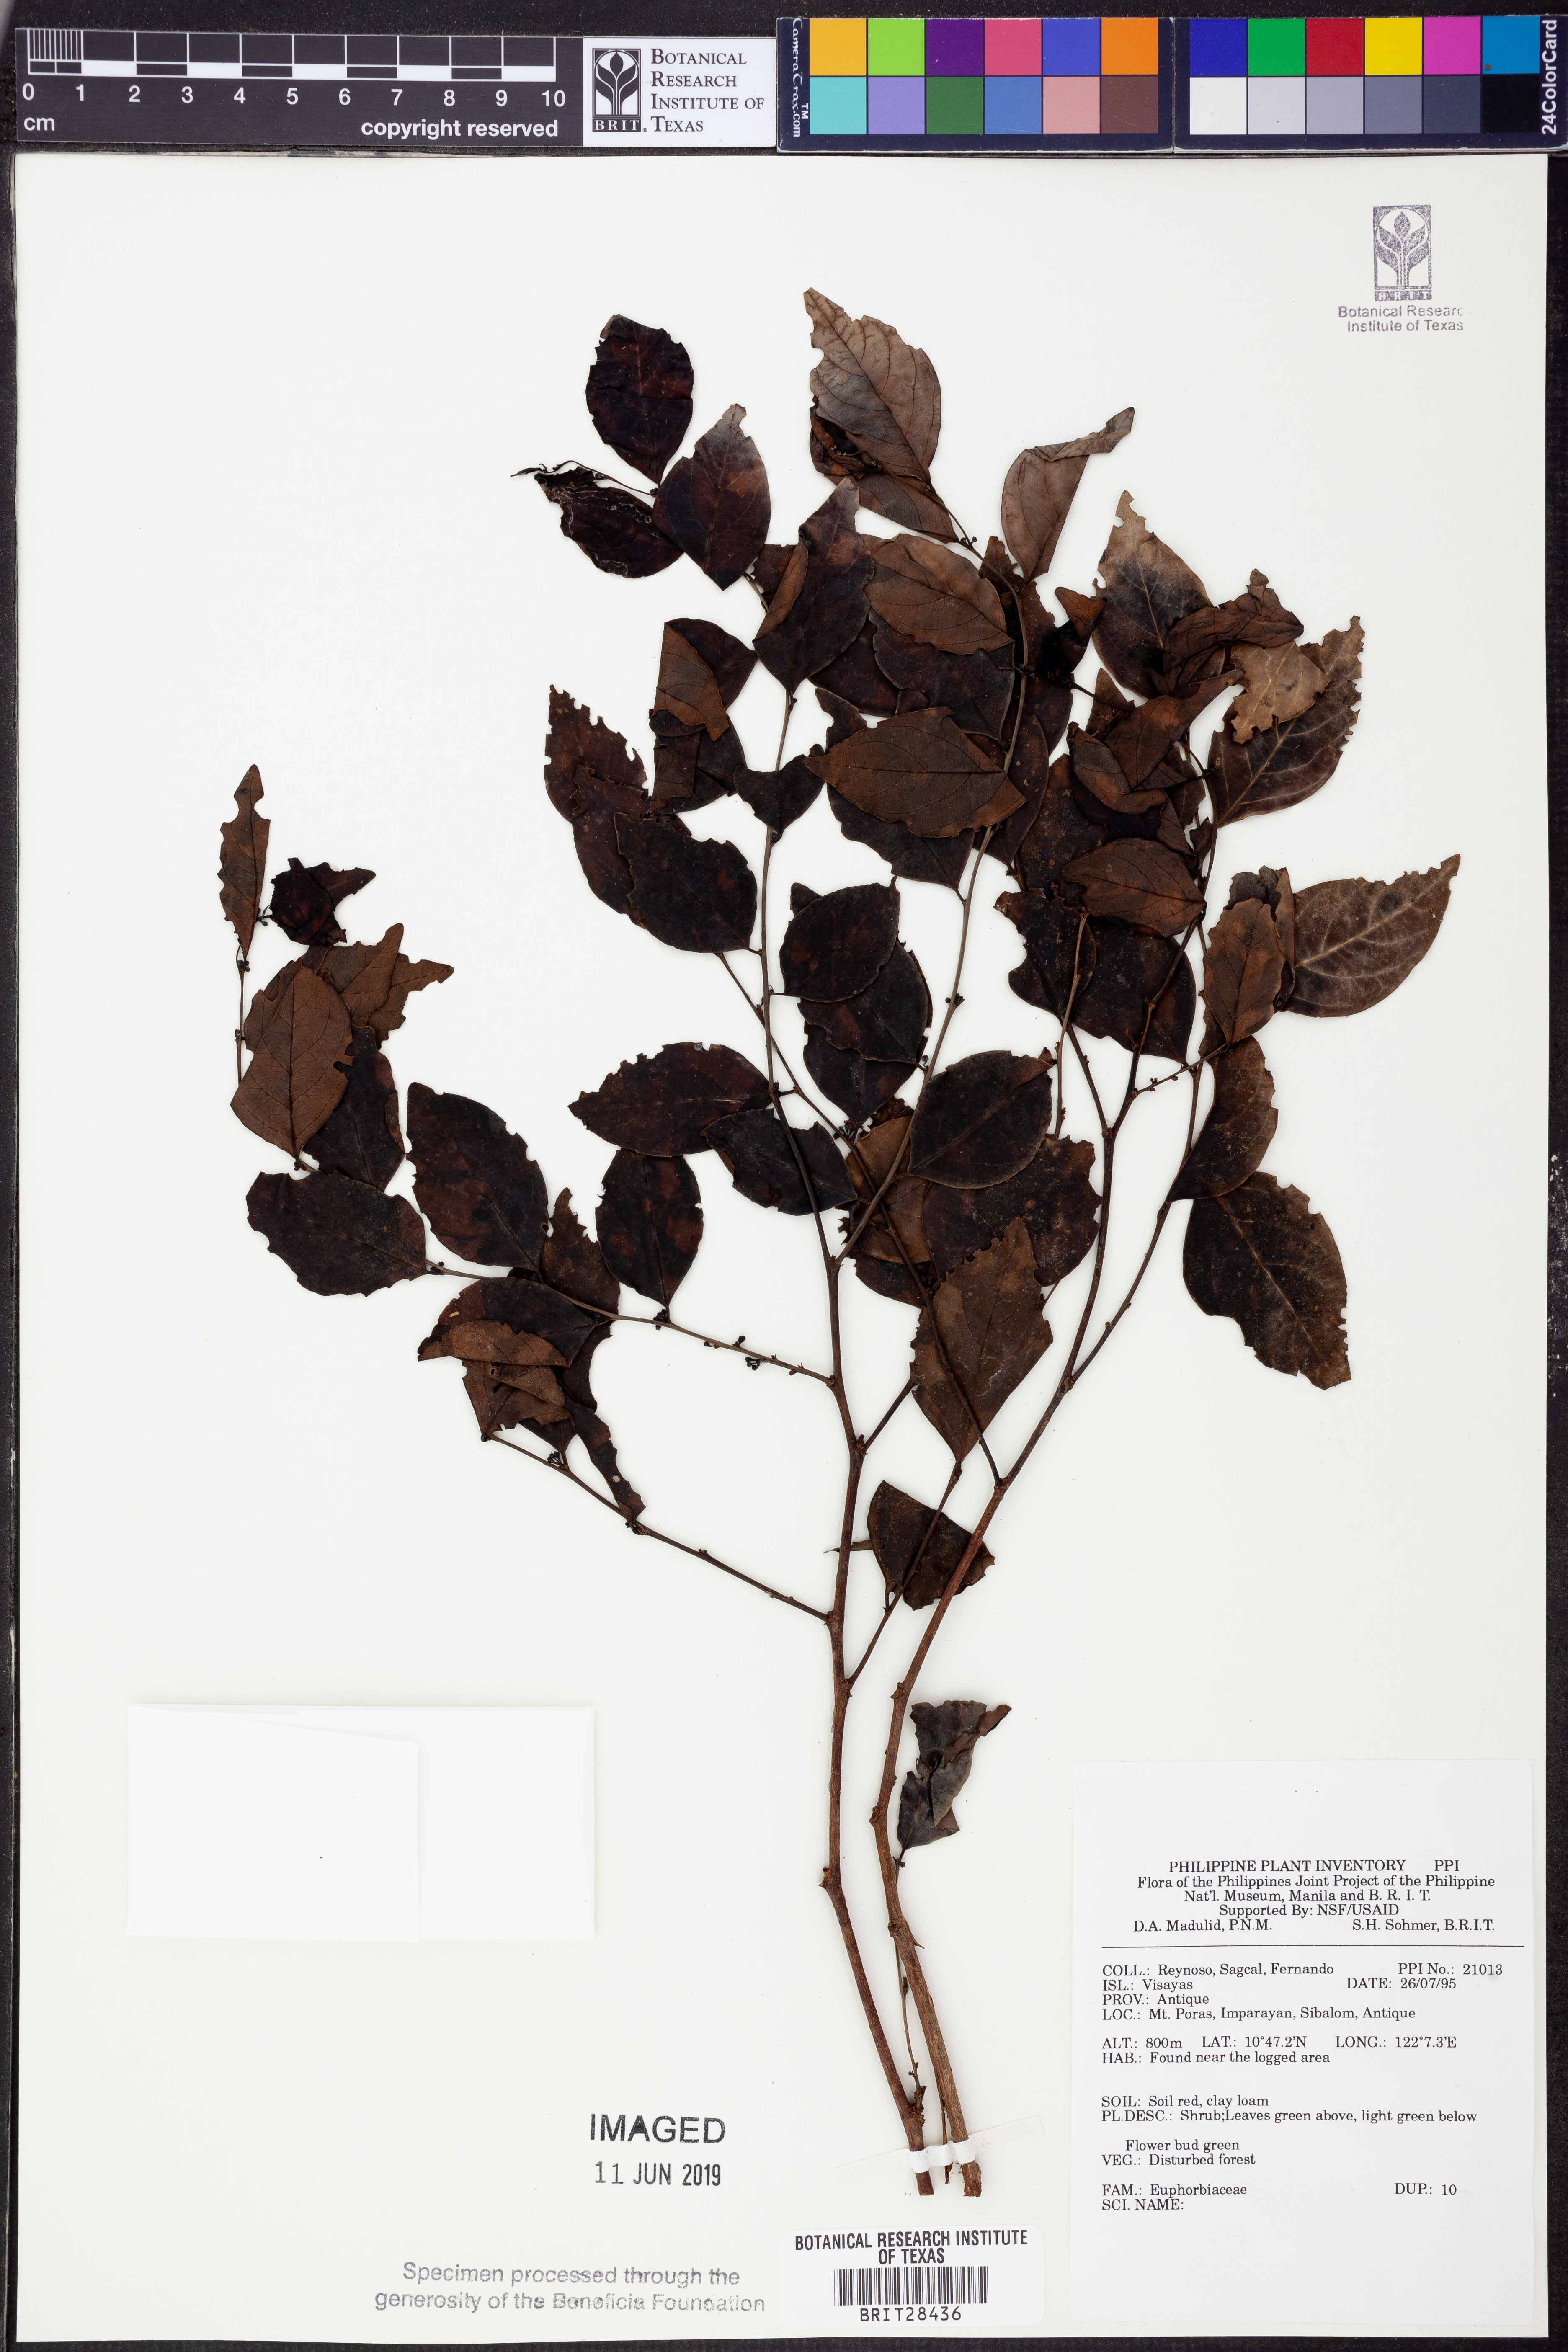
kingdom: Plantae
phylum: Tracheophyta
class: Magnoliopsida
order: Malpighiales
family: Euphorbiaceae
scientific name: Euphorbiaceae
